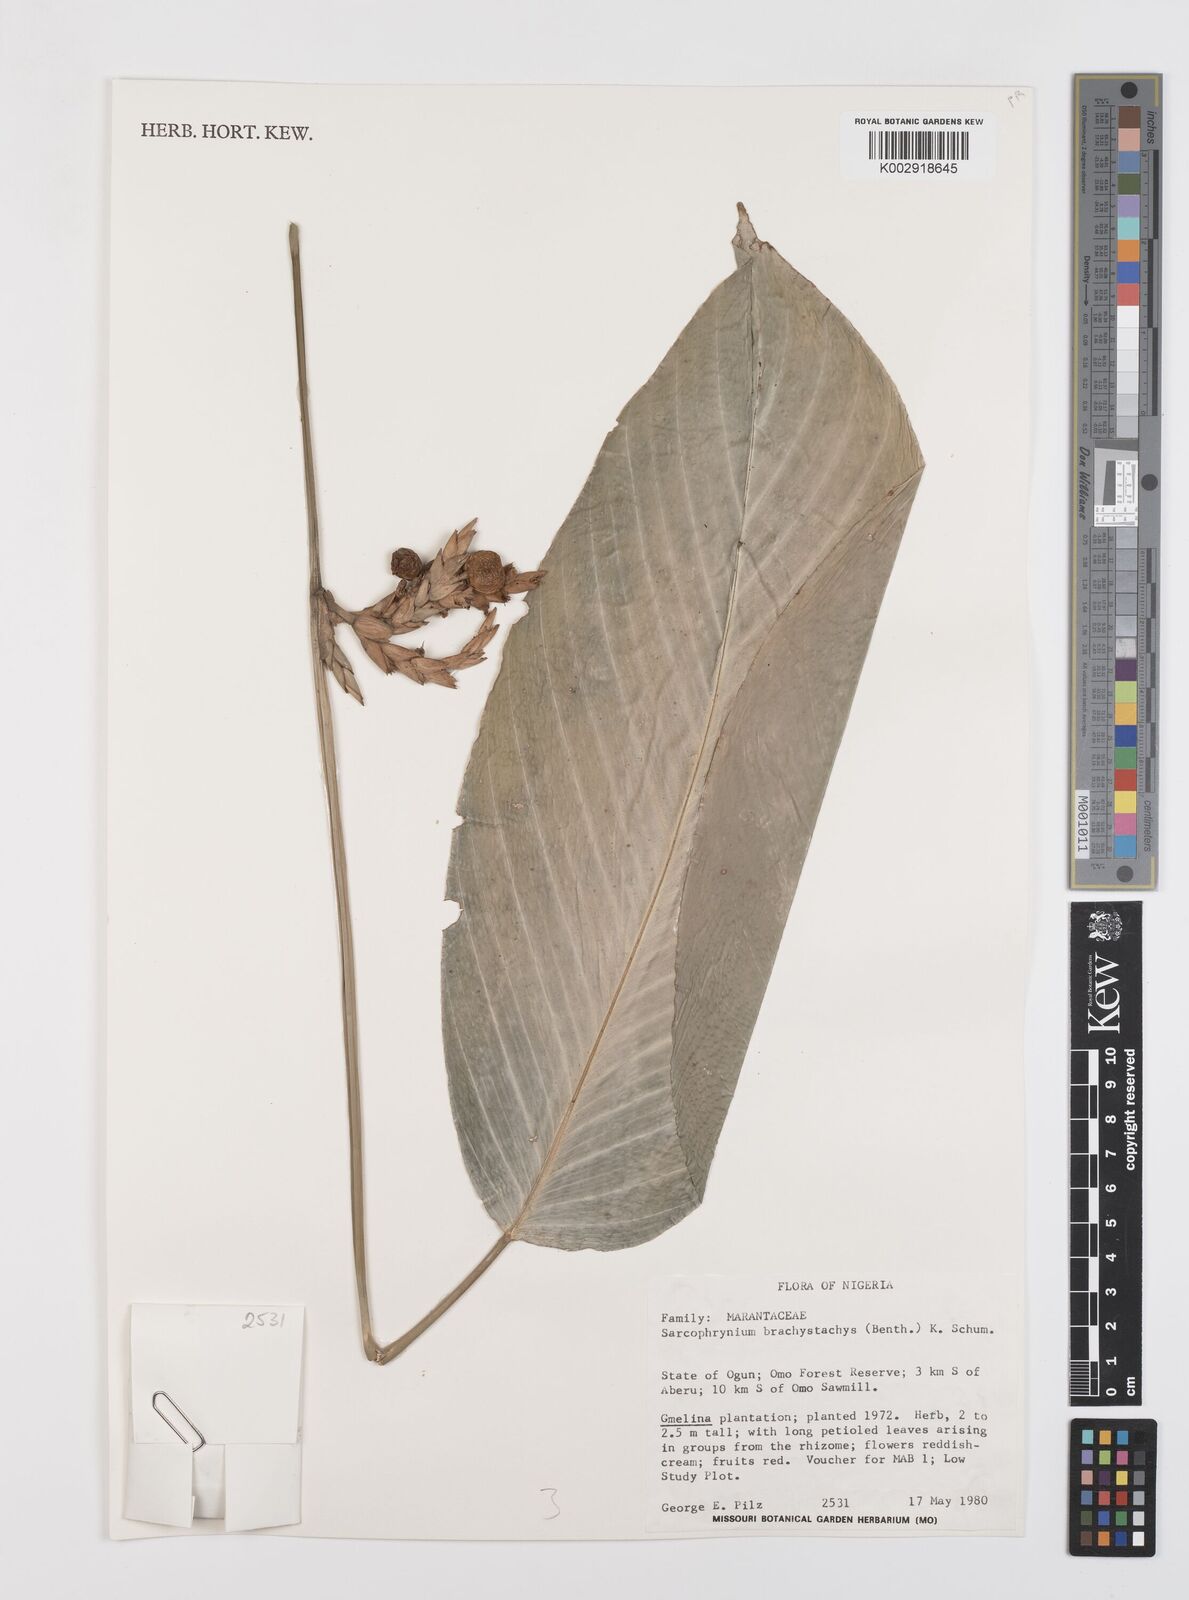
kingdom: Plantae
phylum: Tracheophyta
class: Liliopsida
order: Zingiberales
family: Marantaceae
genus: Sarcophrynium
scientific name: Sarcophrynium brachystachyum
